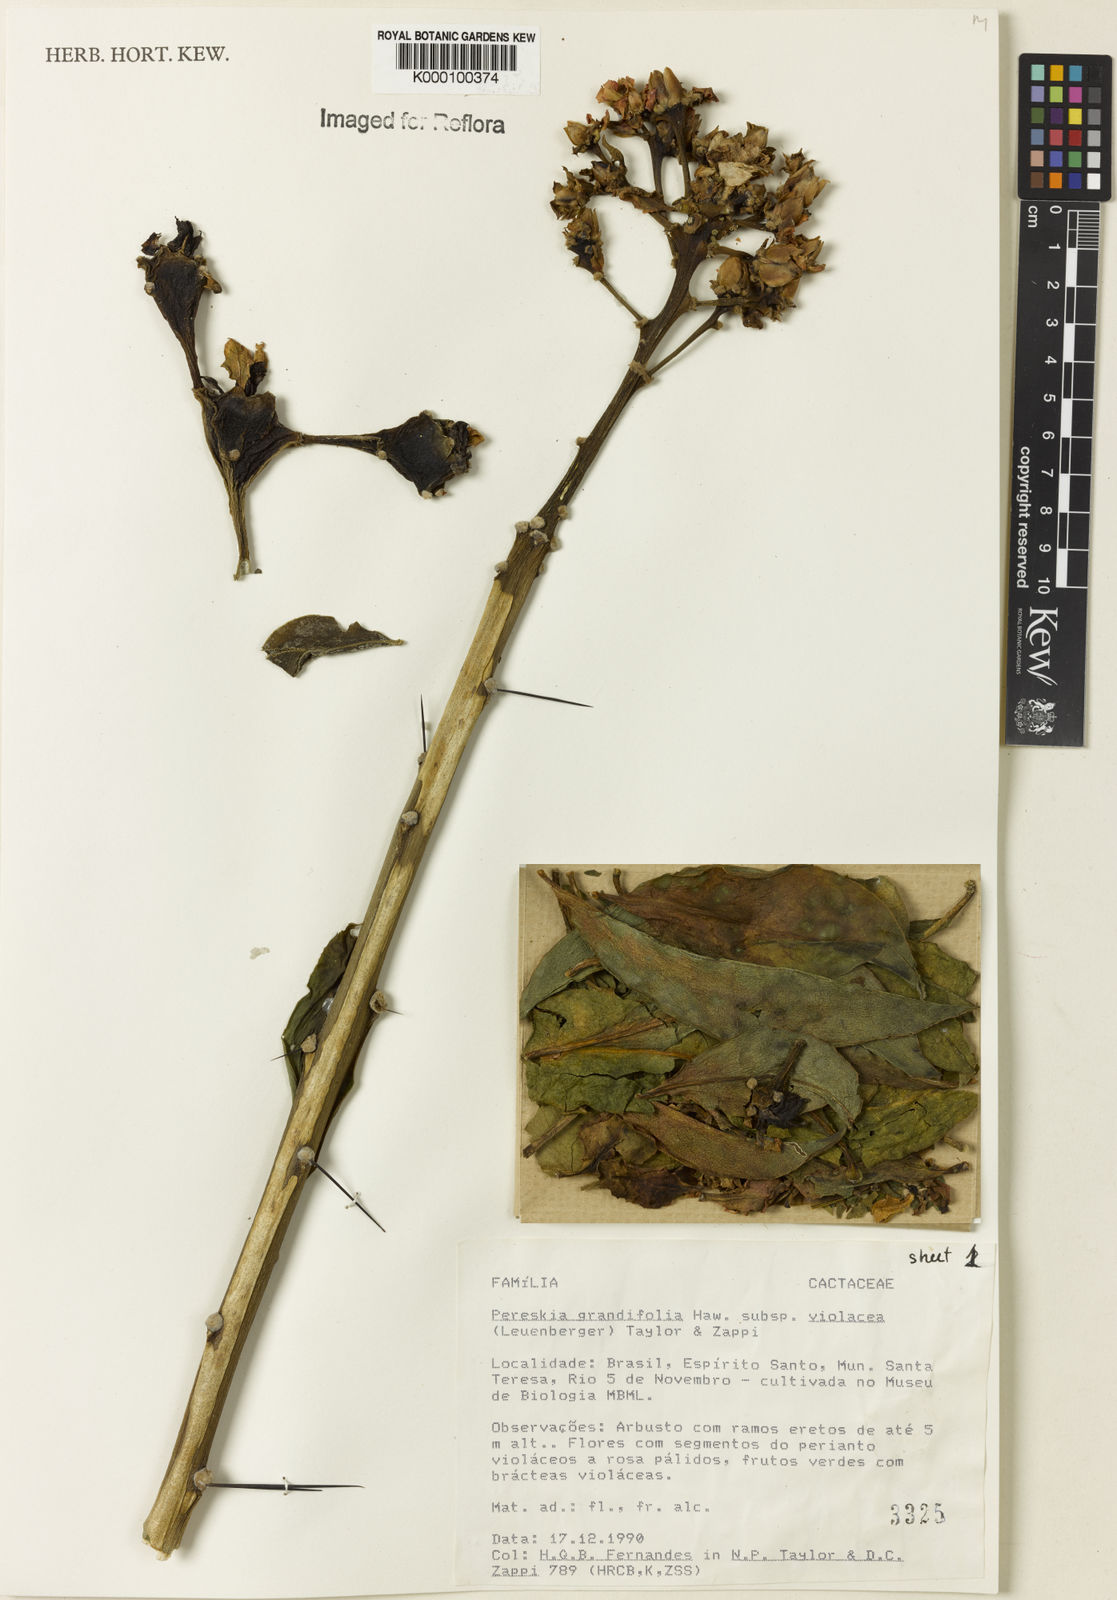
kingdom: Plantae
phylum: Tracheophyta
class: Magnoliopsida
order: Caryophyllales
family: Cactaceae
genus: Pereskia
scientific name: Pereskia grandifolia
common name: Rose cactus
